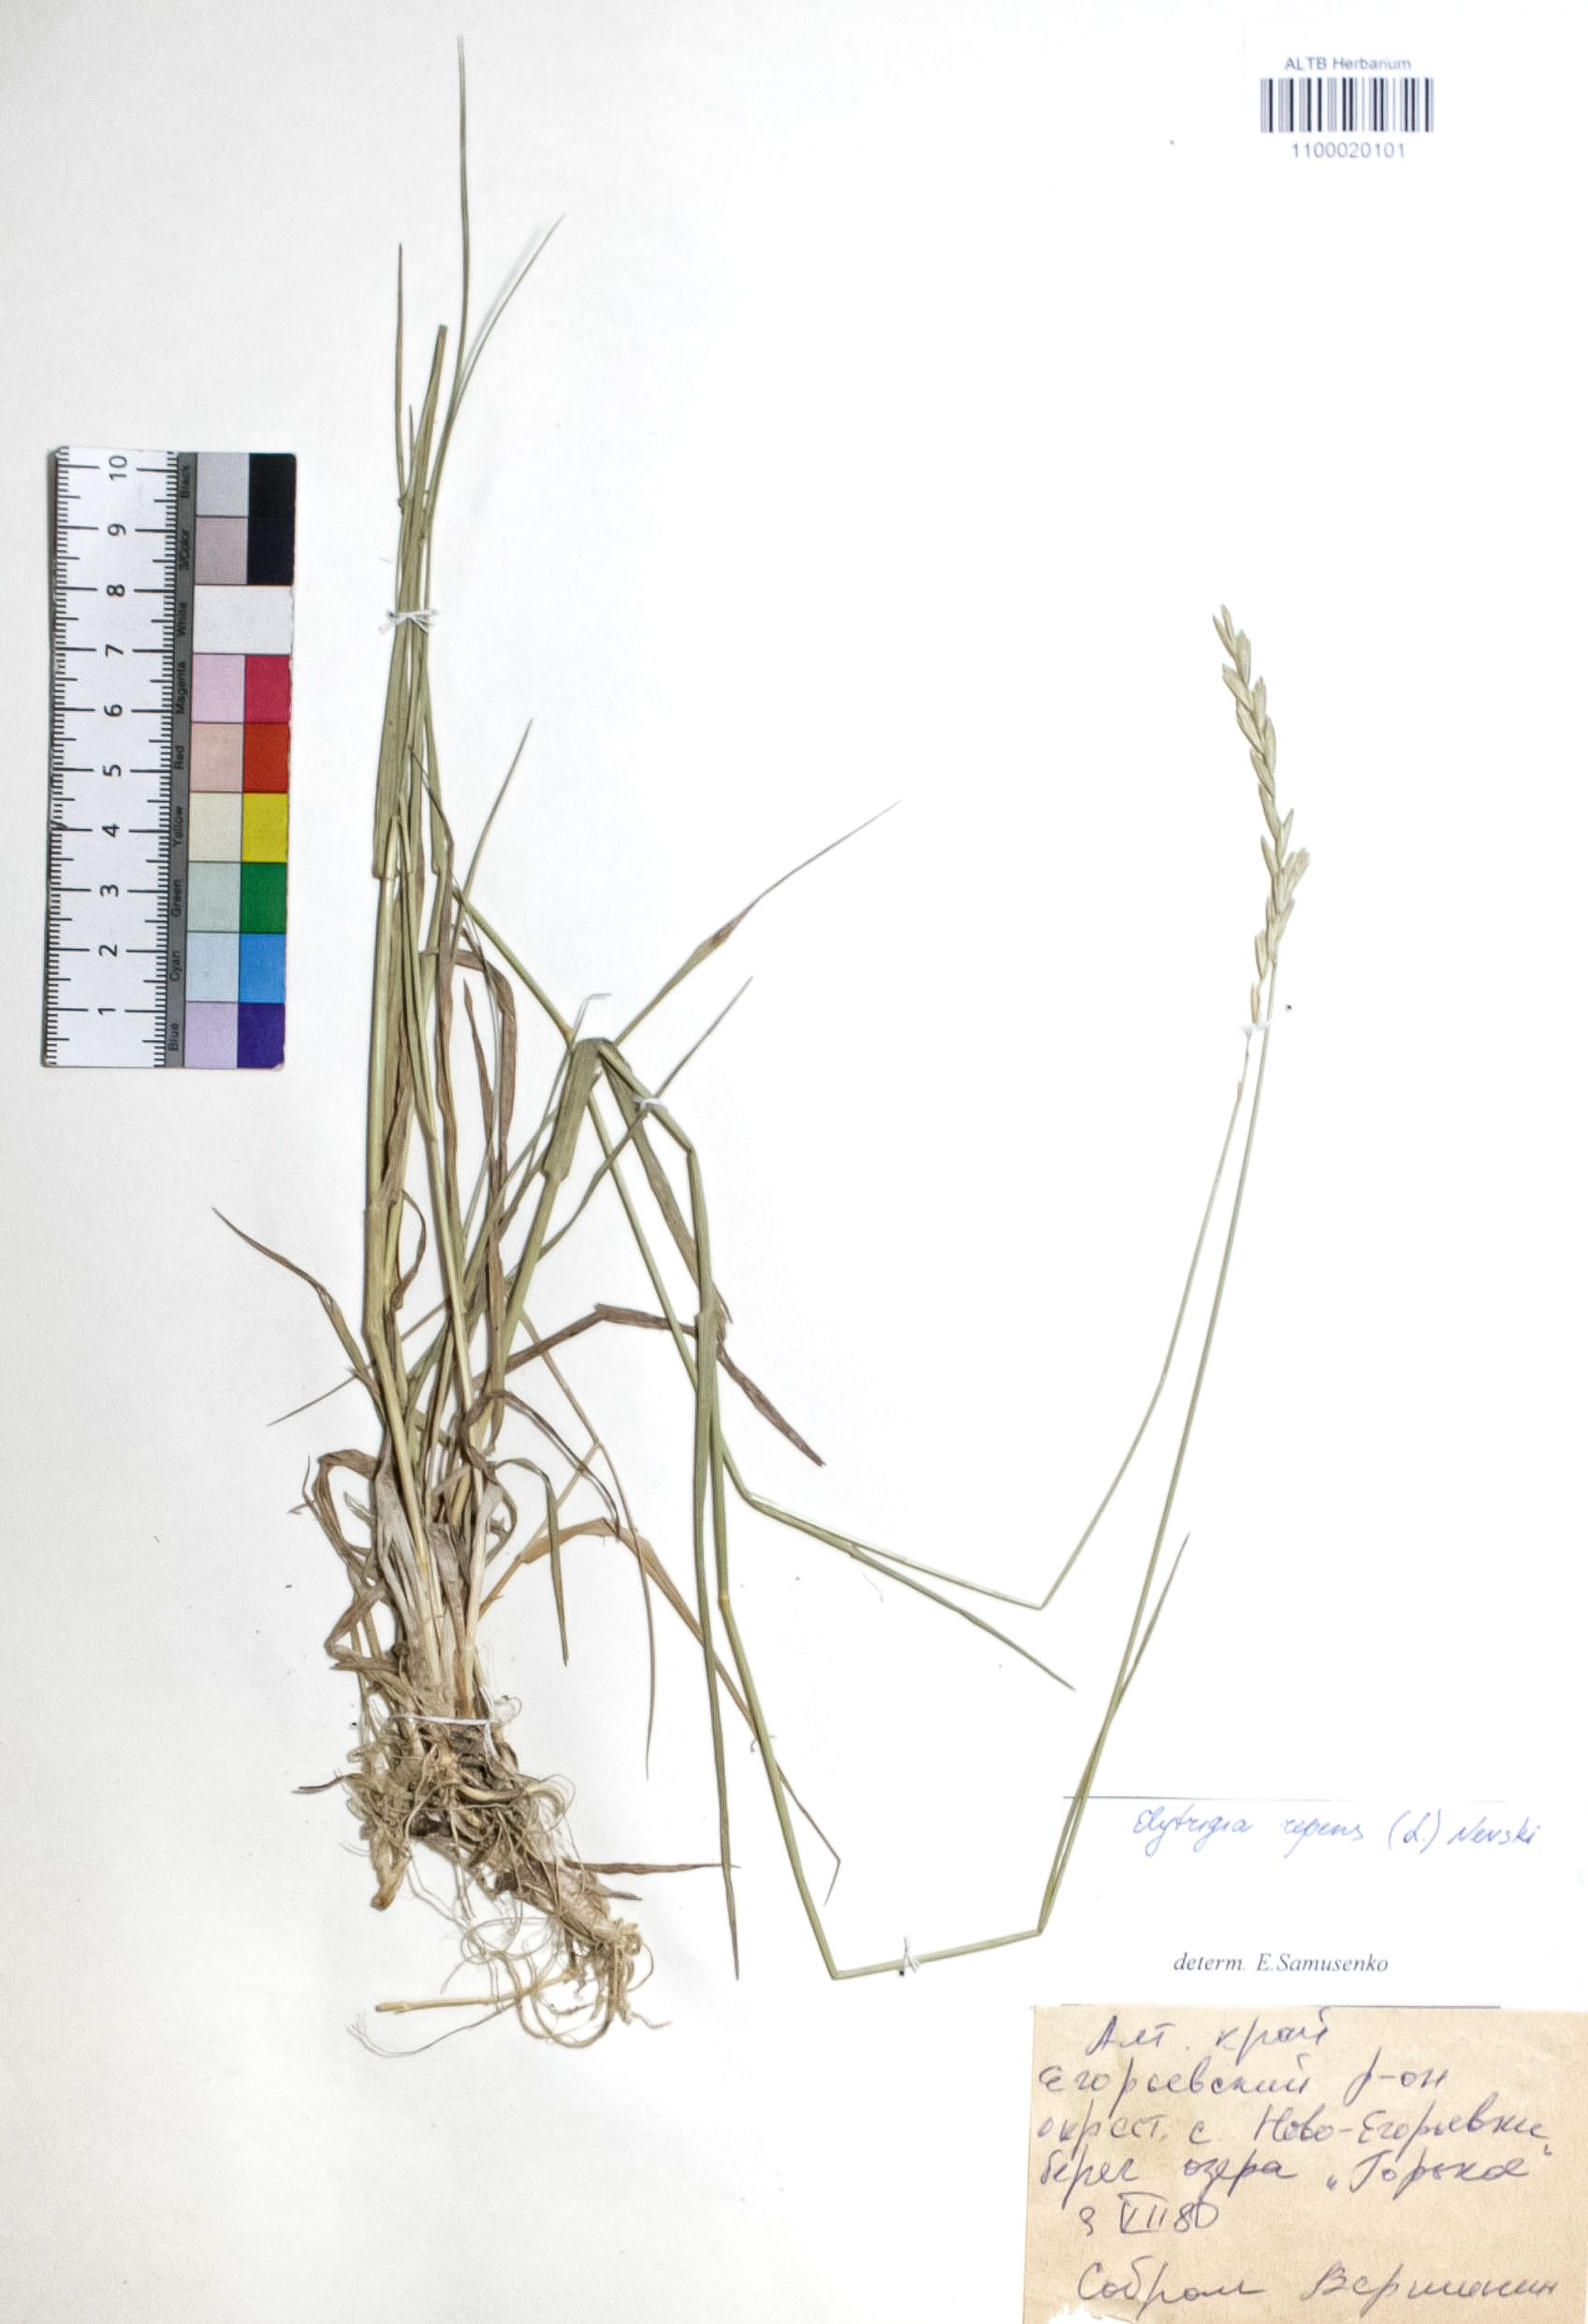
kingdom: Plantae
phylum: Tracheophyta
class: Liliopsida
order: Poales
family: Poaceae
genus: Elymus
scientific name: Elymus repens
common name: Quackgrass
